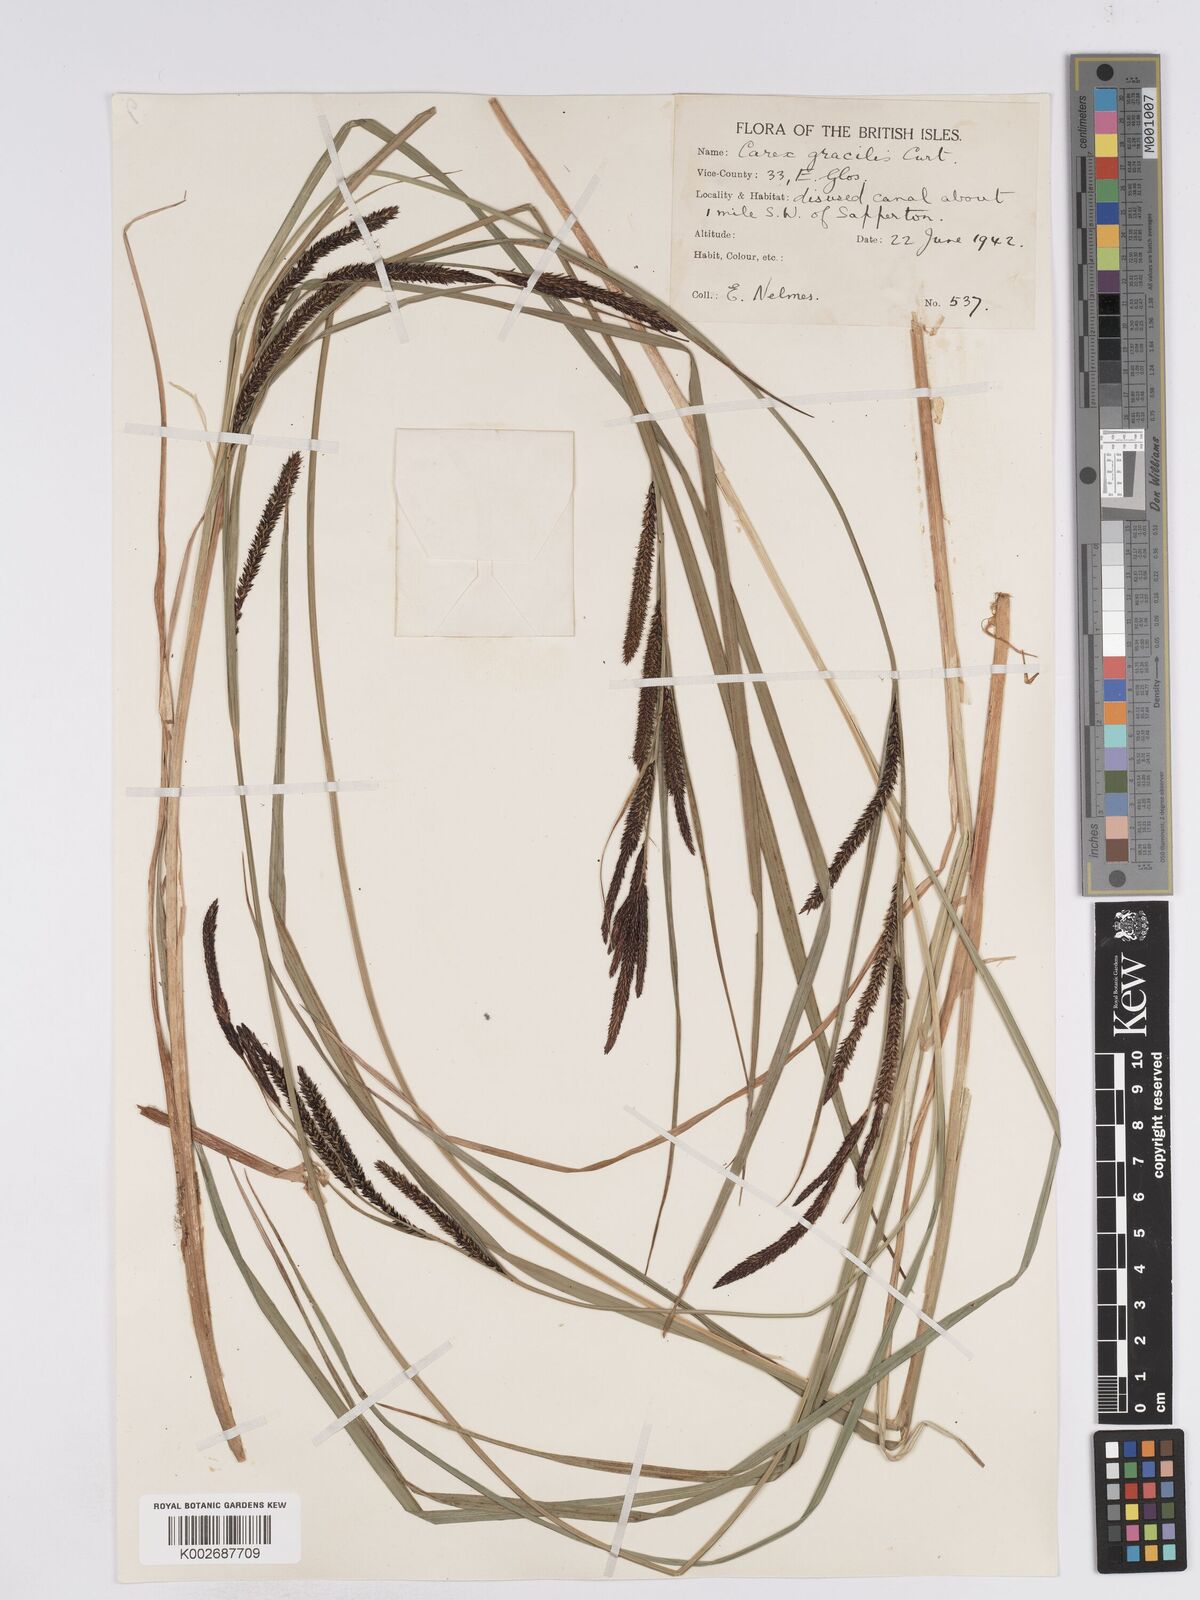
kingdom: Plantae
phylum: Tracheophyta
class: Liliopsida
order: Poales
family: Cyperaceae
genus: Carex
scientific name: Carex acuta
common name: Slender tufted-sedge
